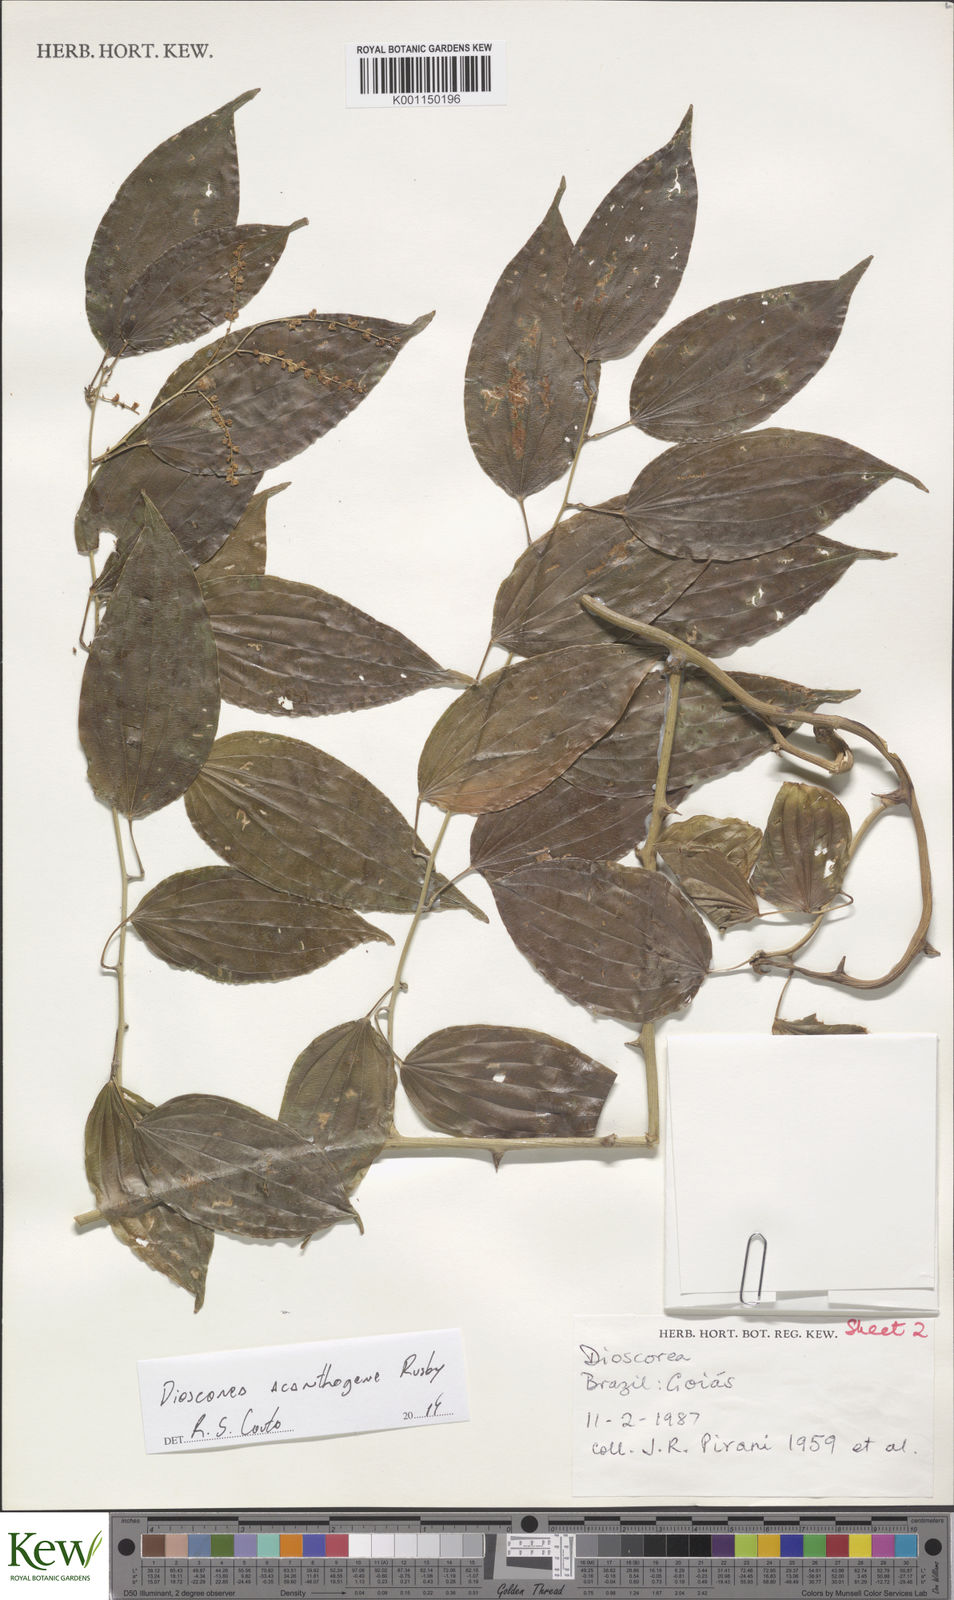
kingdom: Plantae
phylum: Tracheophyta
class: Liliopsida
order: Dioscoreales
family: Dioscoreaceae
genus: Dioscorea
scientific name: Dioscorea
